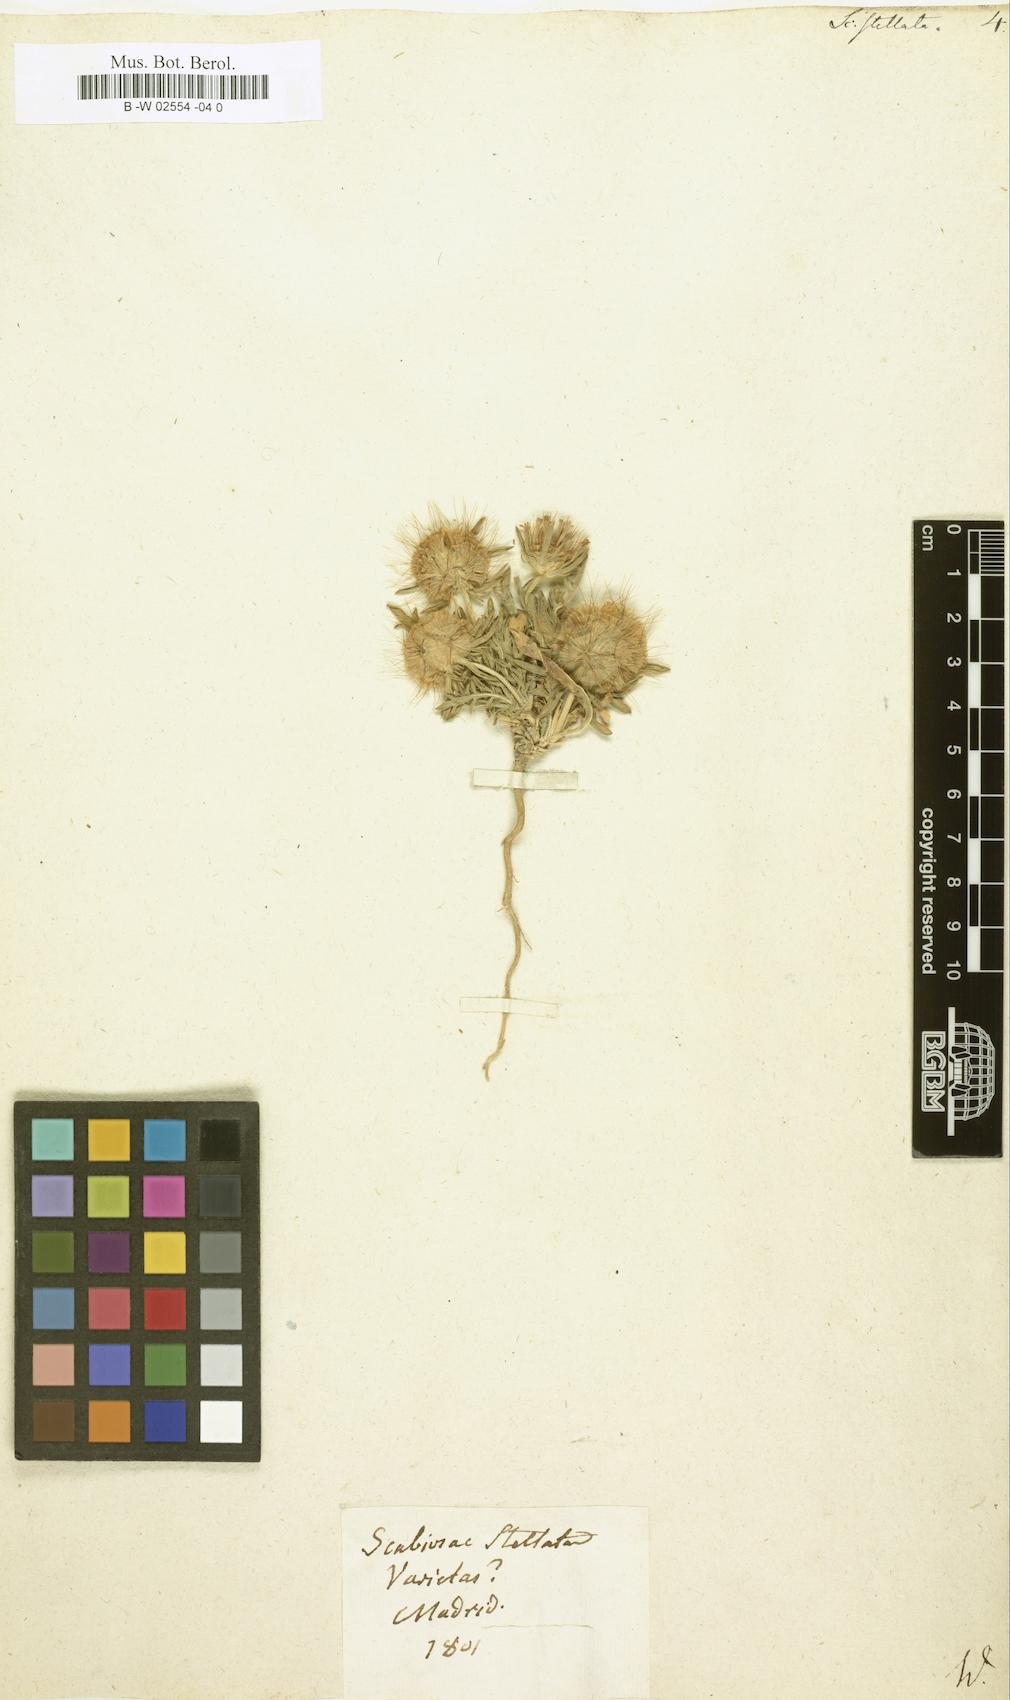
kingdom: Plantae
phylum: Tracheophyta
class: Magnoliopsida
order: Dipsacales
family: Caprifoliaceae
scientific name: Caprifoliaceae
